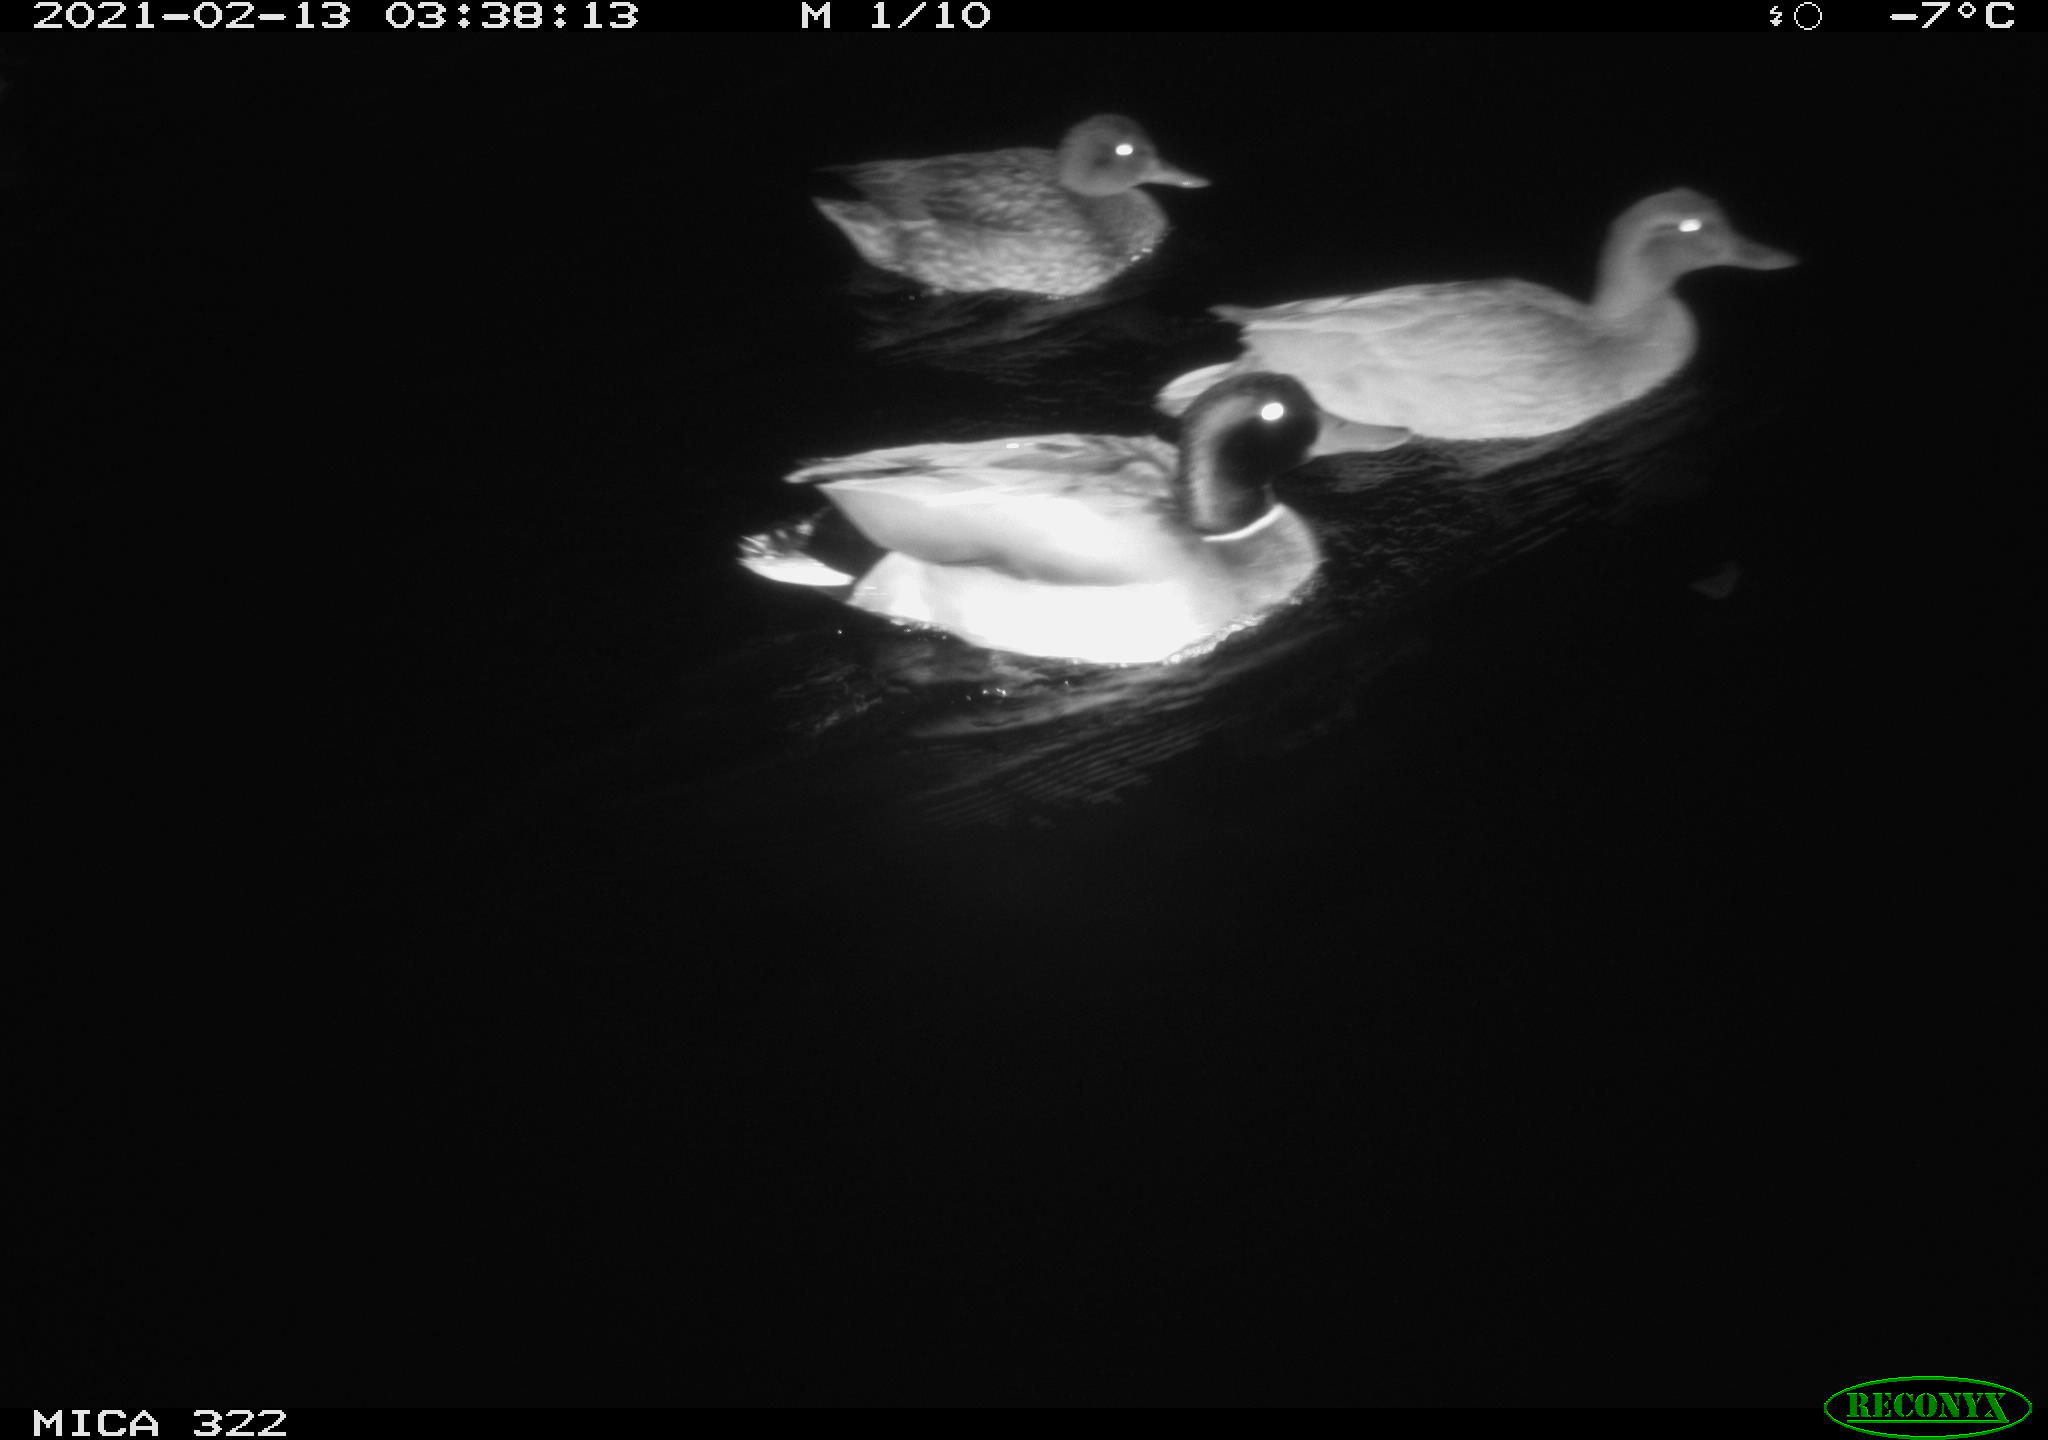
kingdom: Animalia
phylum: Chordata
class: Aves
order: Anseriformes
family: Anatidae
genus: Anas
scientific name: Anas platyrhynchos
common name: Mallard
